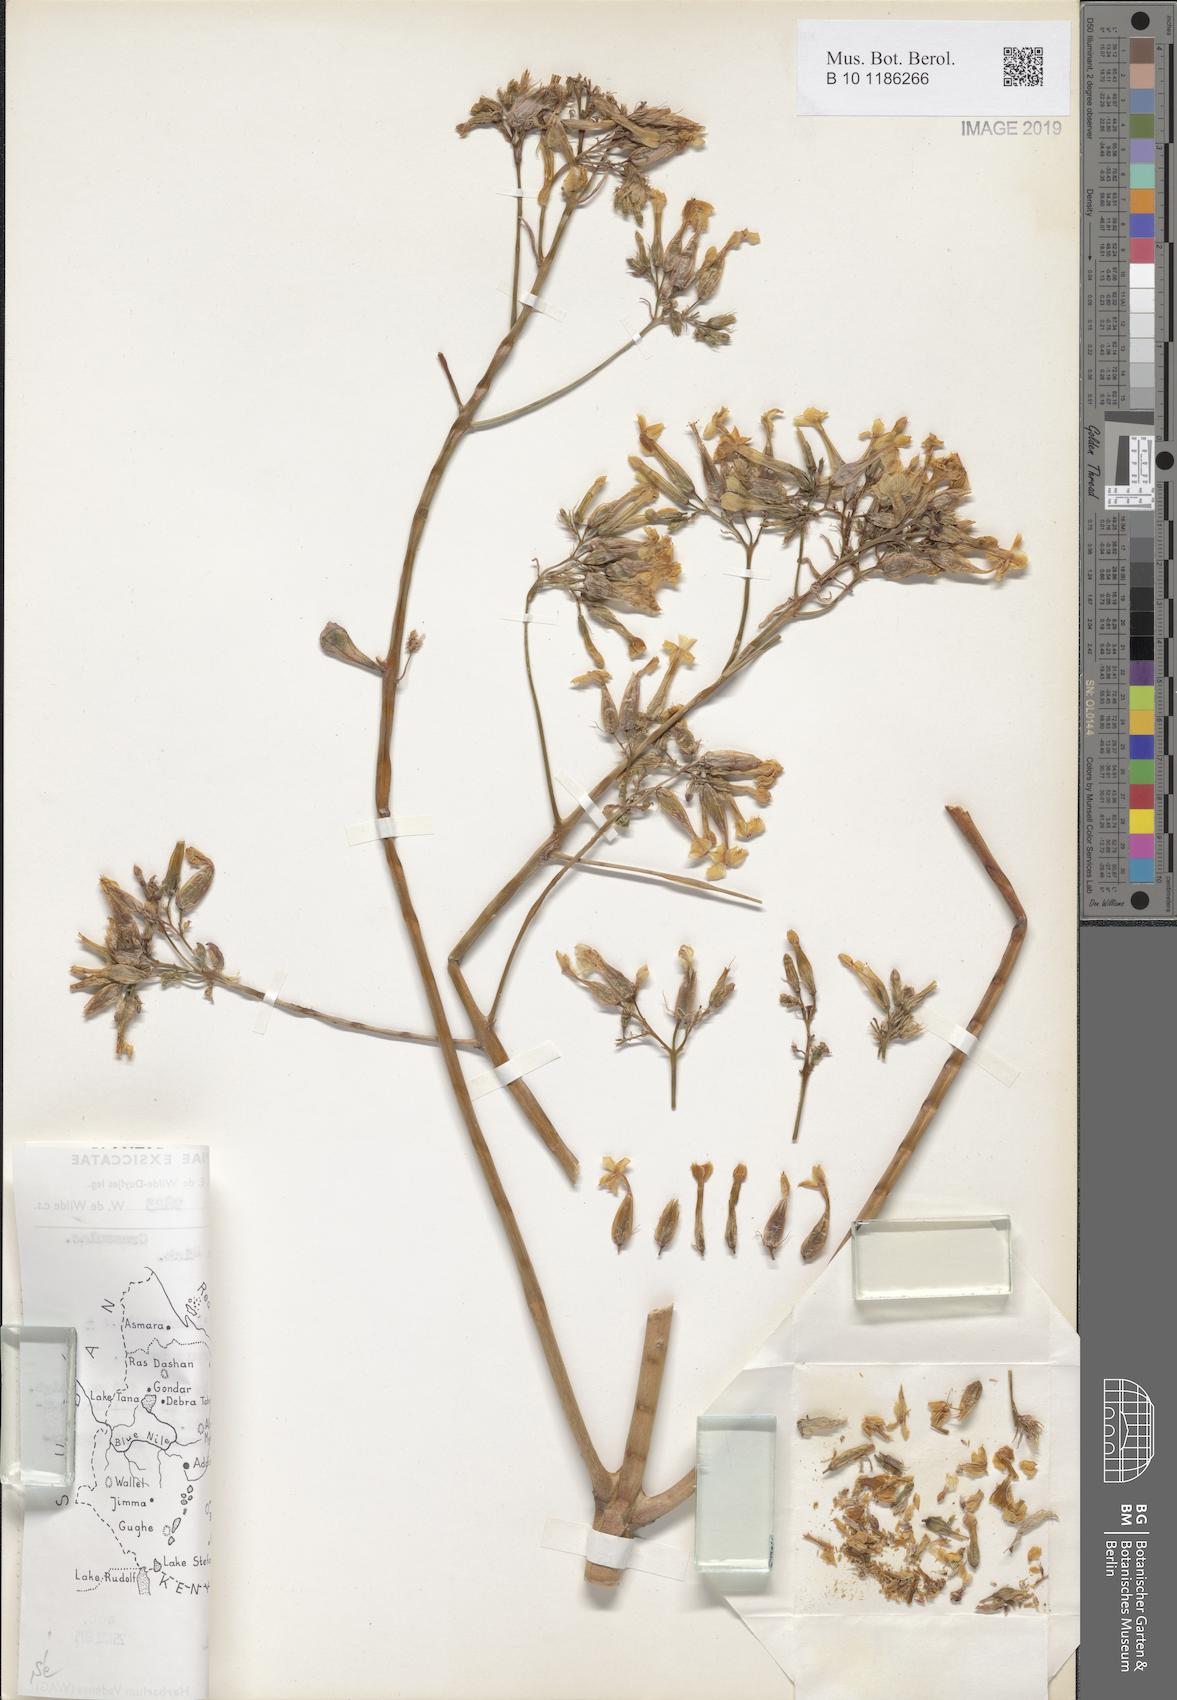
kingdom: Plantae
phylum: Tracheophyta
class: Magnoliopsida
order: Saxifragales
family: Crassulaceae
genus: Kalanchoe
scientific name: Kalanchoe petitiana
